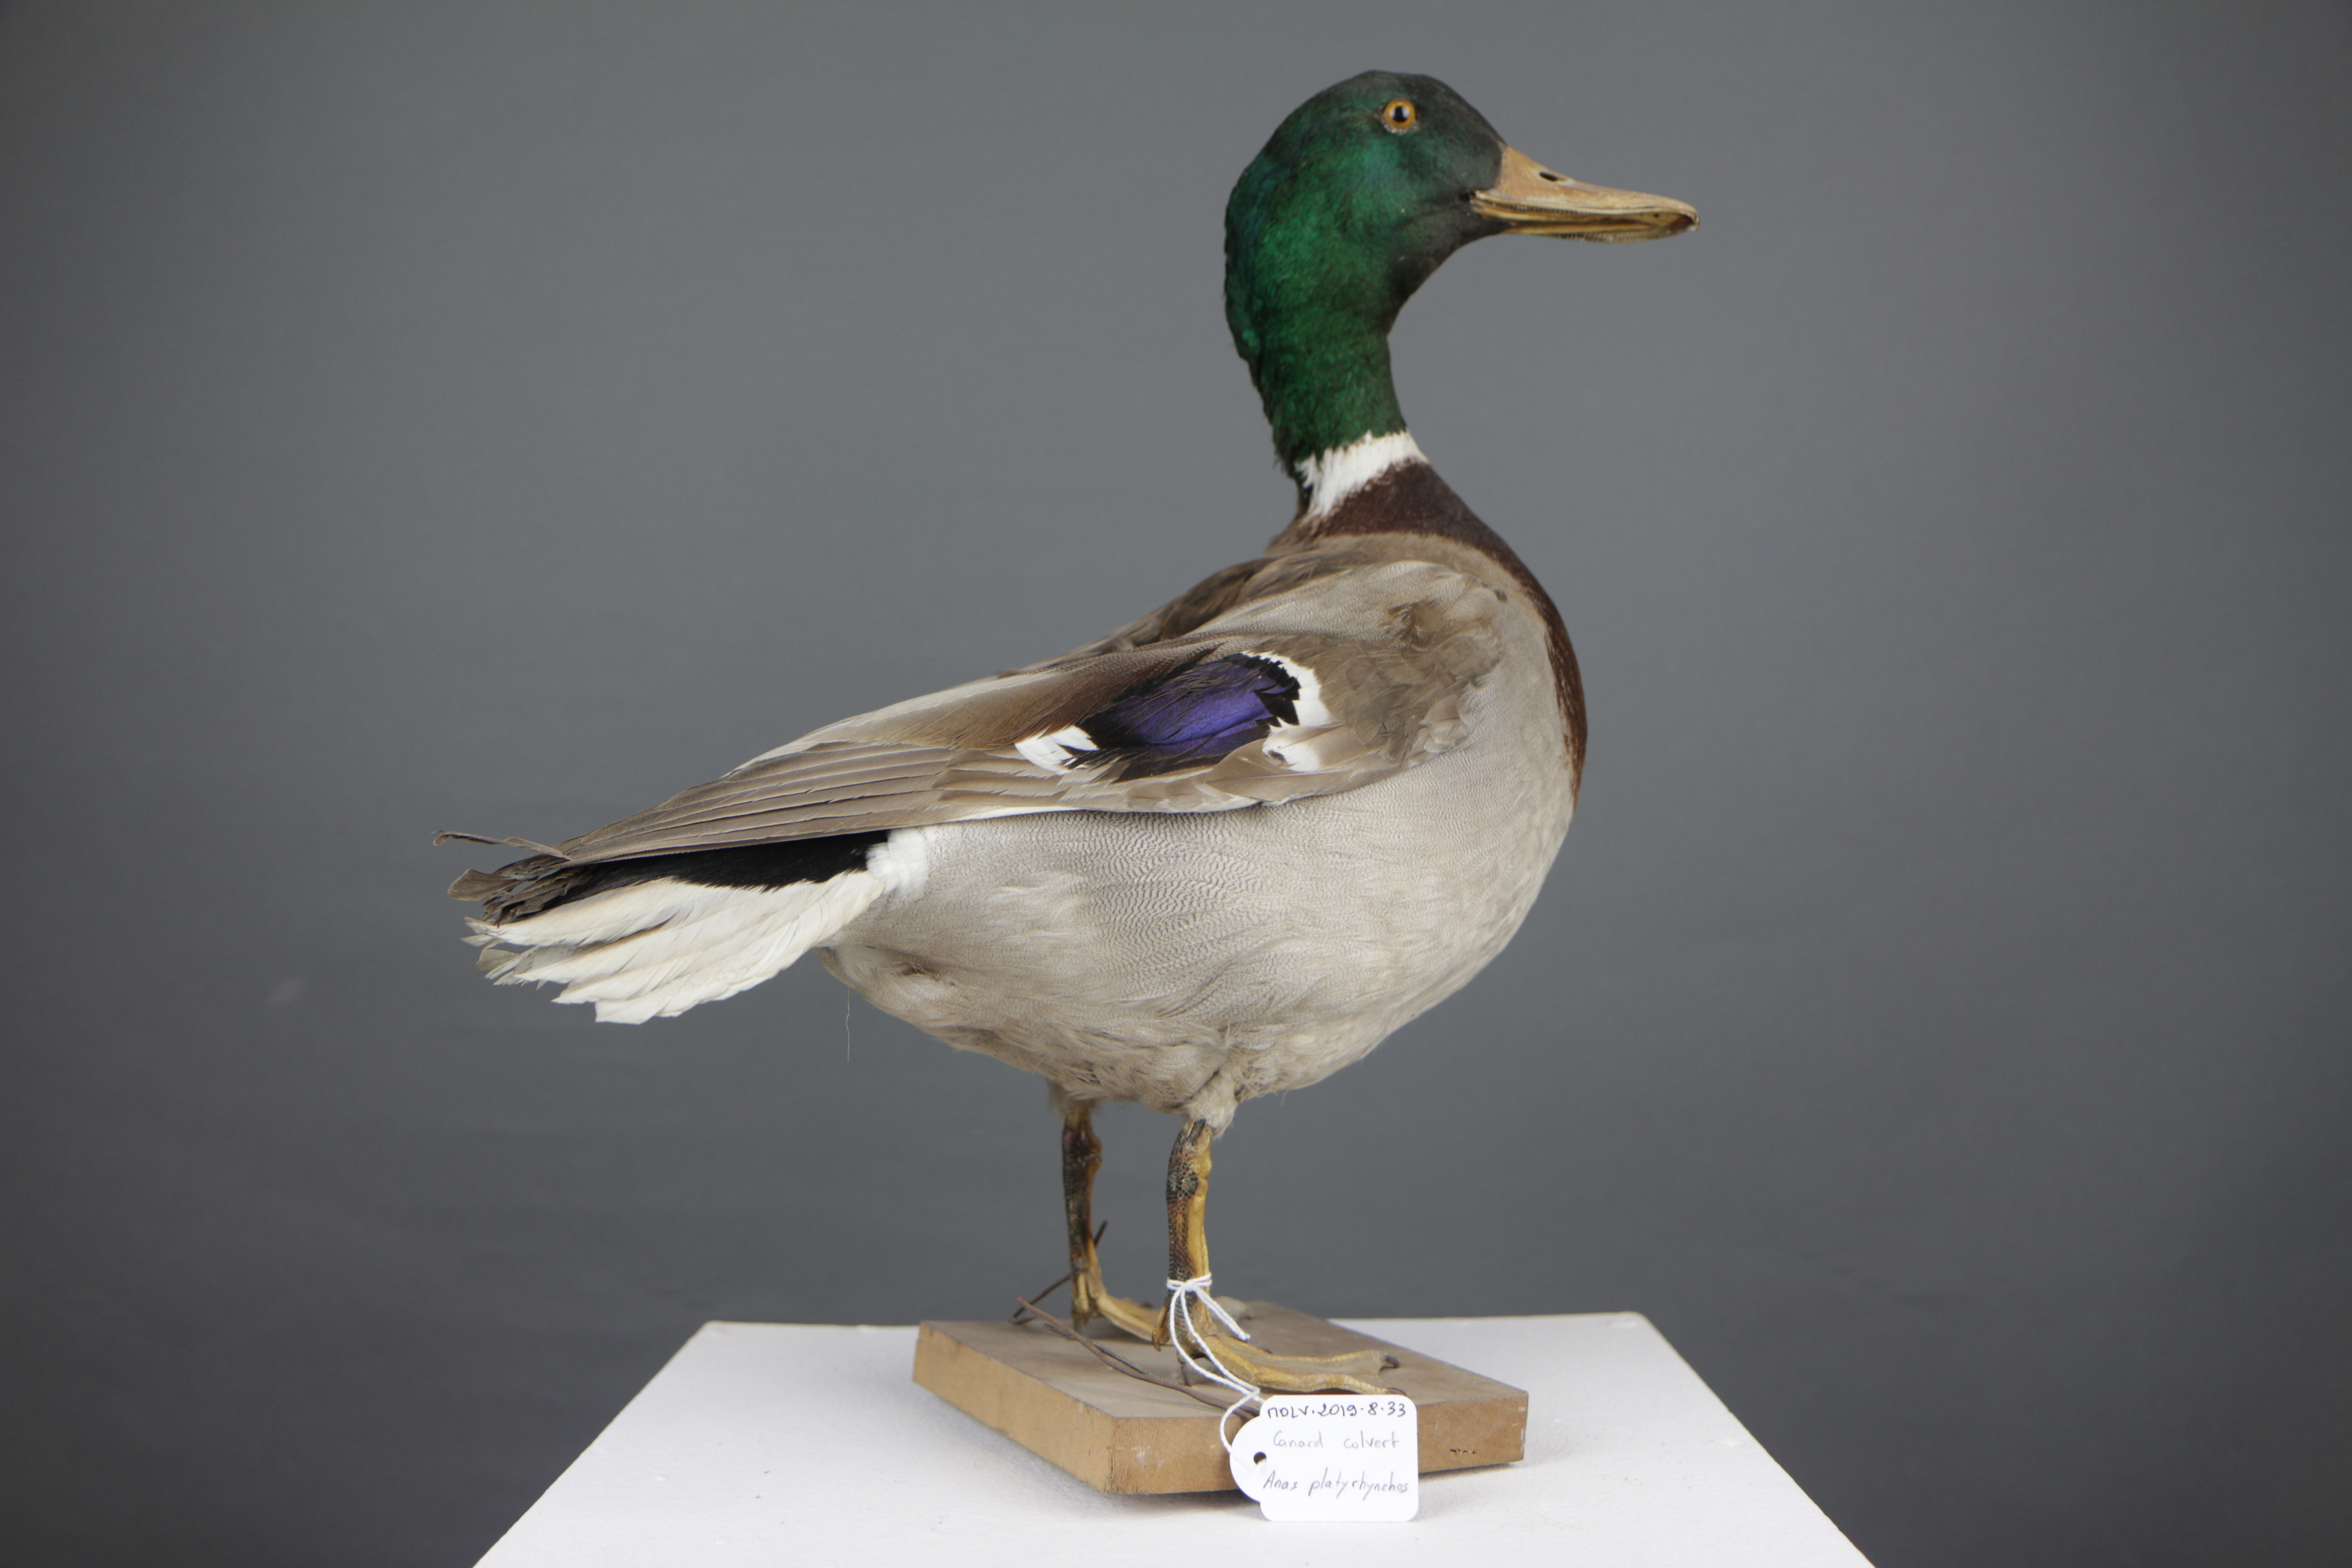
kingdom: Animalia
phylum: Chordata
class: Aves
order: Anseriformes
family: Anatidae
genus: Anas
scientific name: Anas platyrhynchos
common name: Mallard
